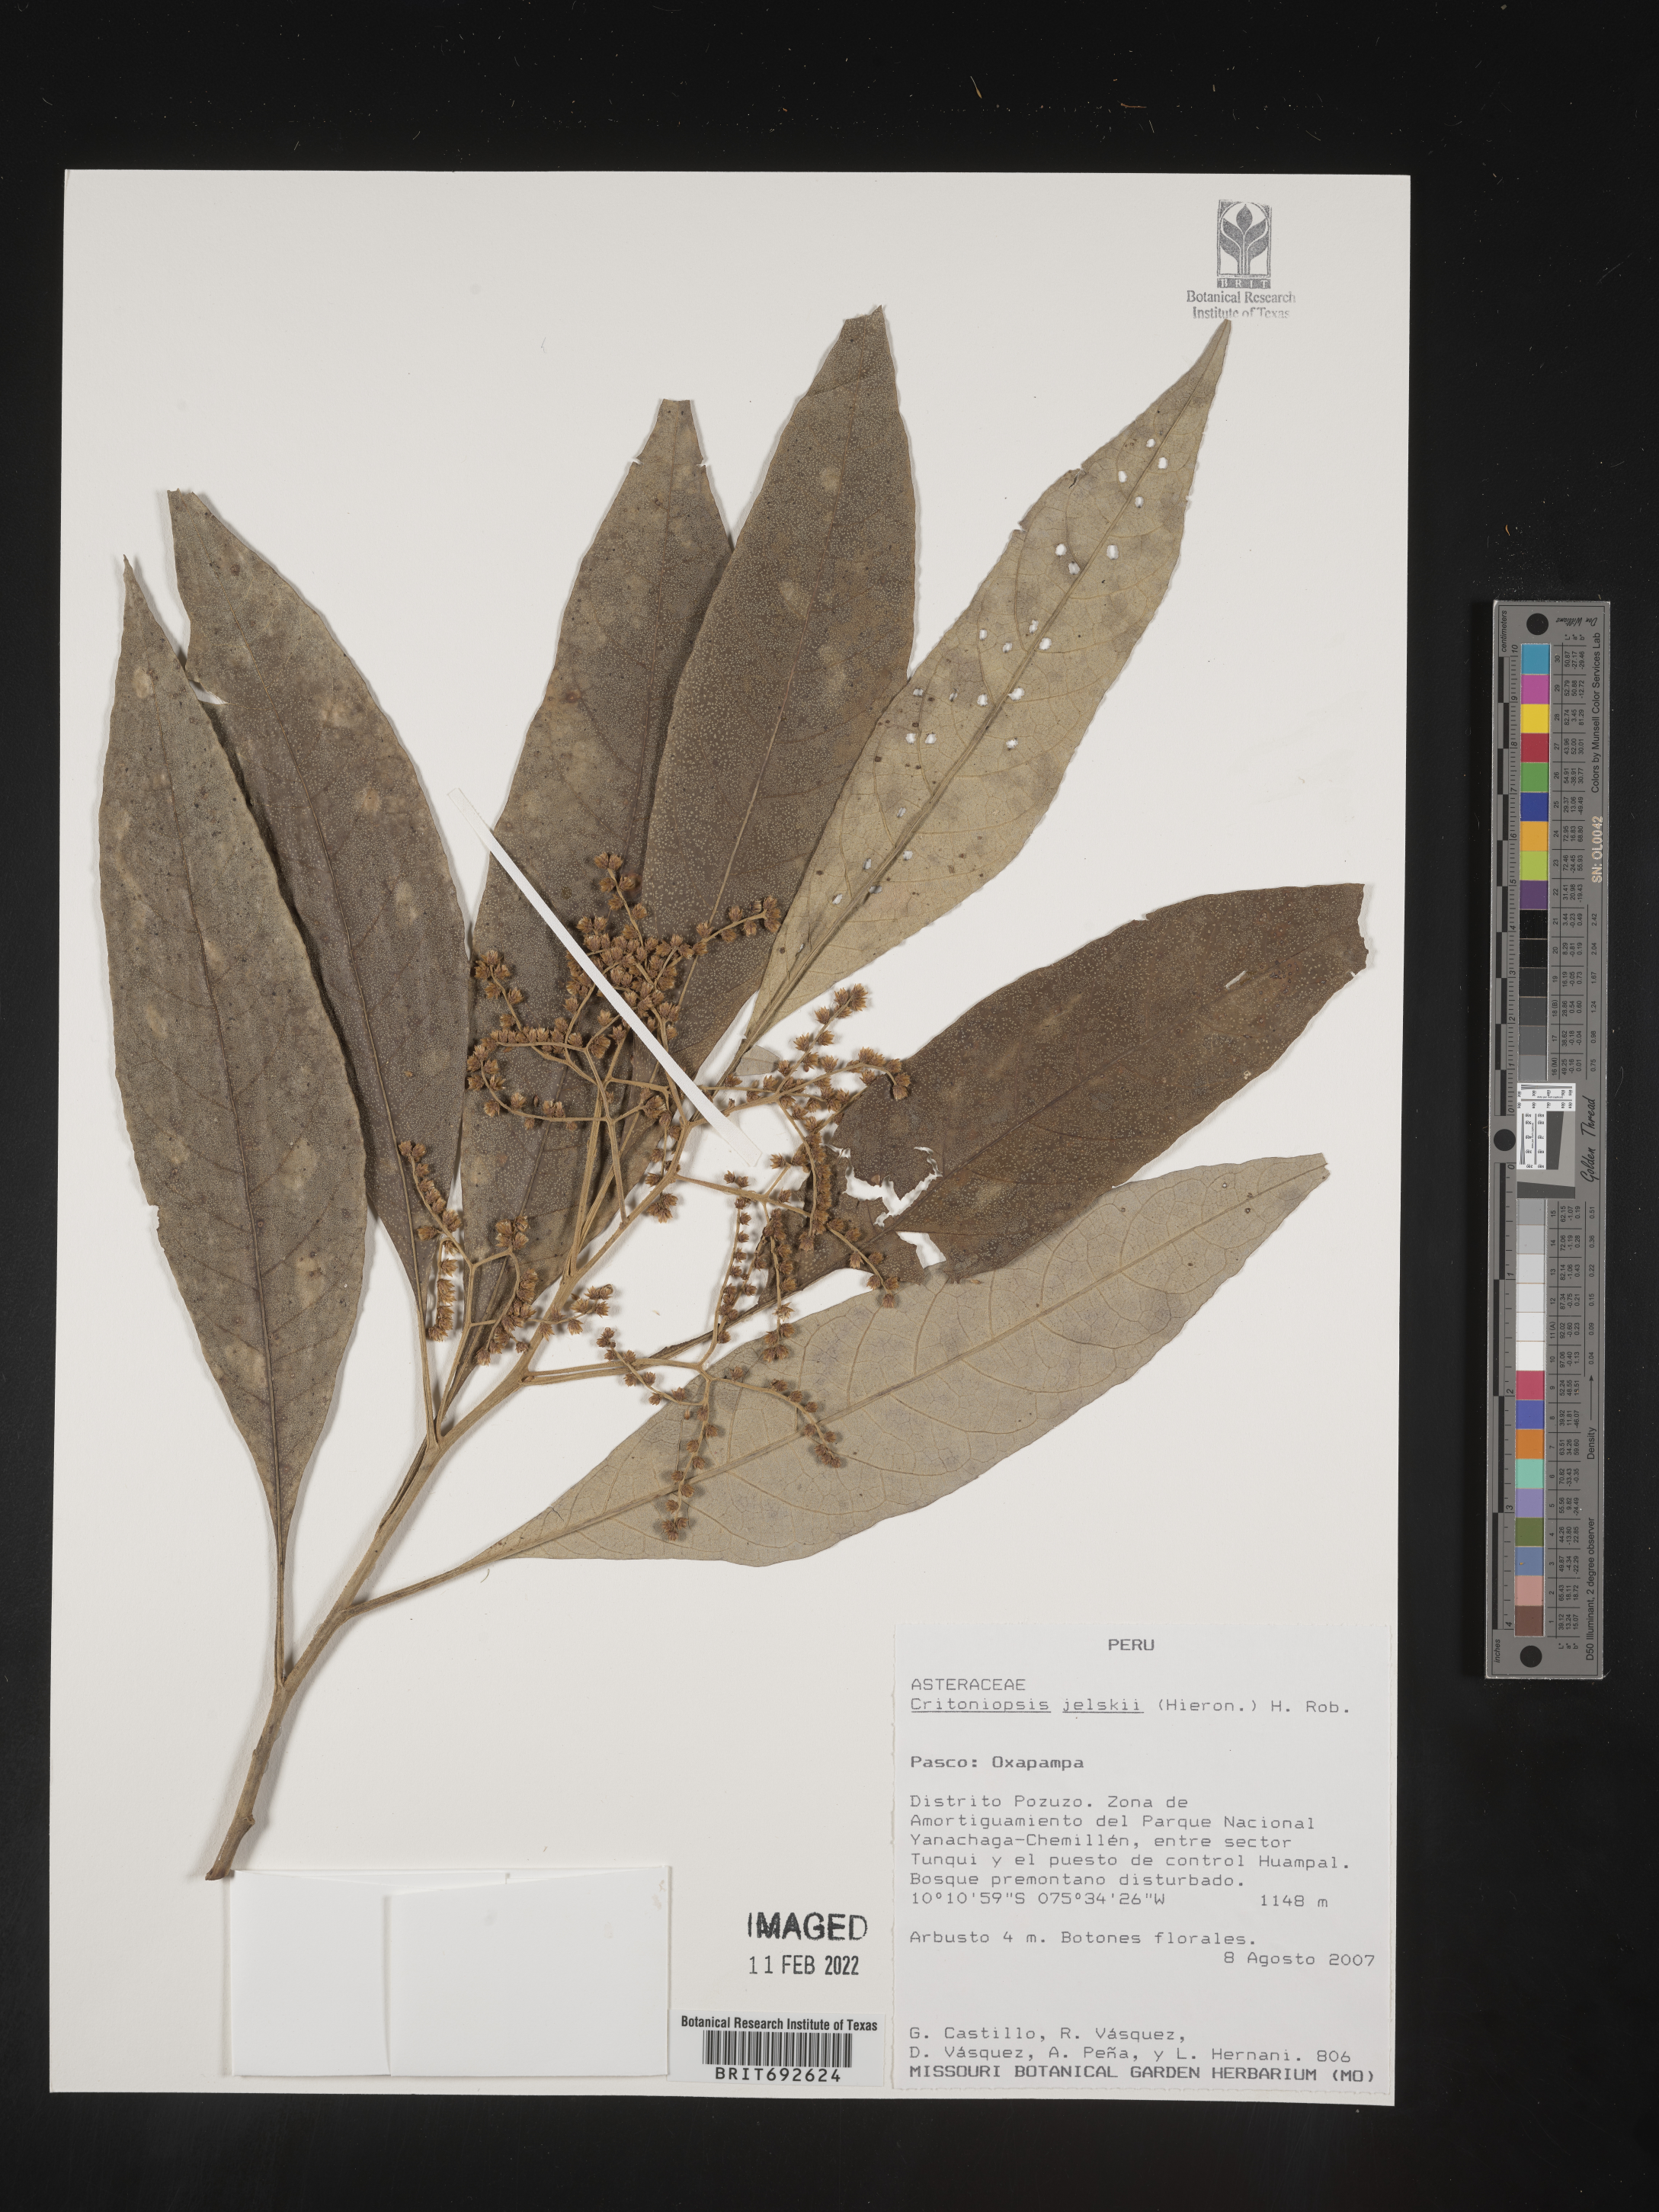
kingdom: Plantae
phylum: Tracheophyta
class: Magnoliopsida
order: Asterales
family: Asteraceae
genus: Critoniopsis
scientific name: Critoniopsis
